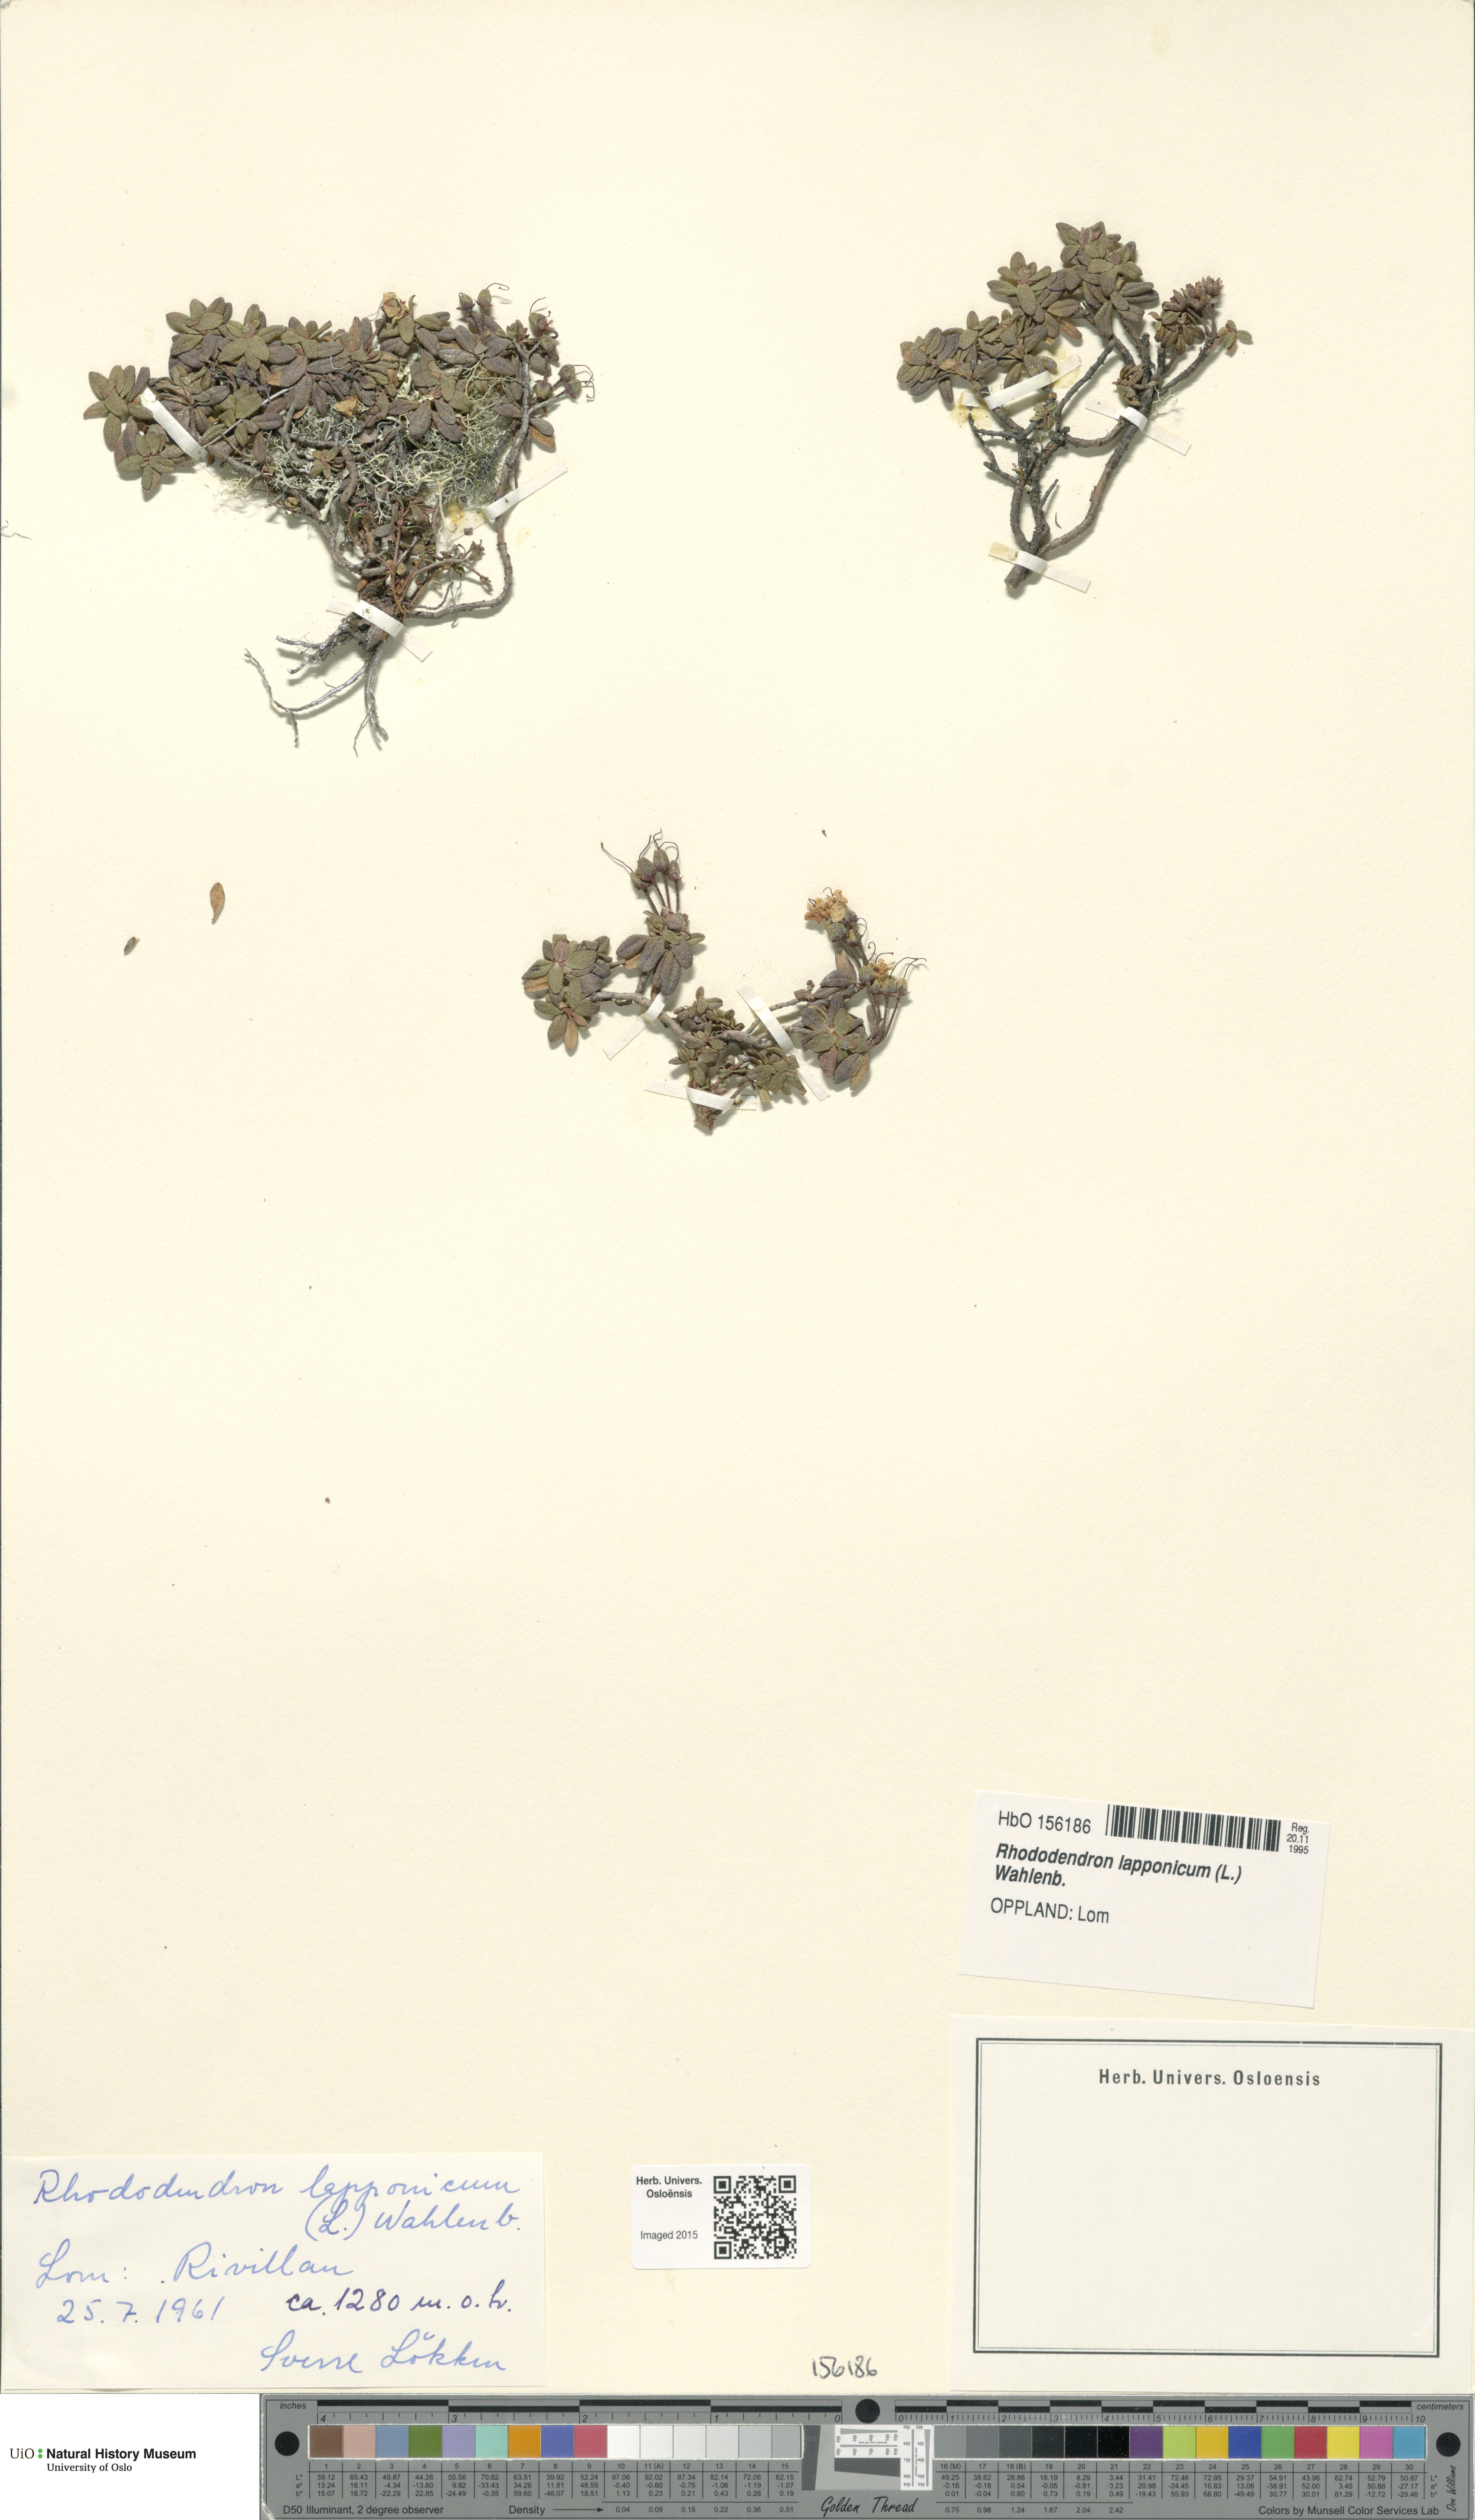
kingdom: Plantae
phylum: Tracheophyta
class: Magnoliopsida
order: Ericales
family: Ericaceae
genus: Rhododendron
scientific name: Rhododendron lapponicum
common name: Lapland rhododendron
